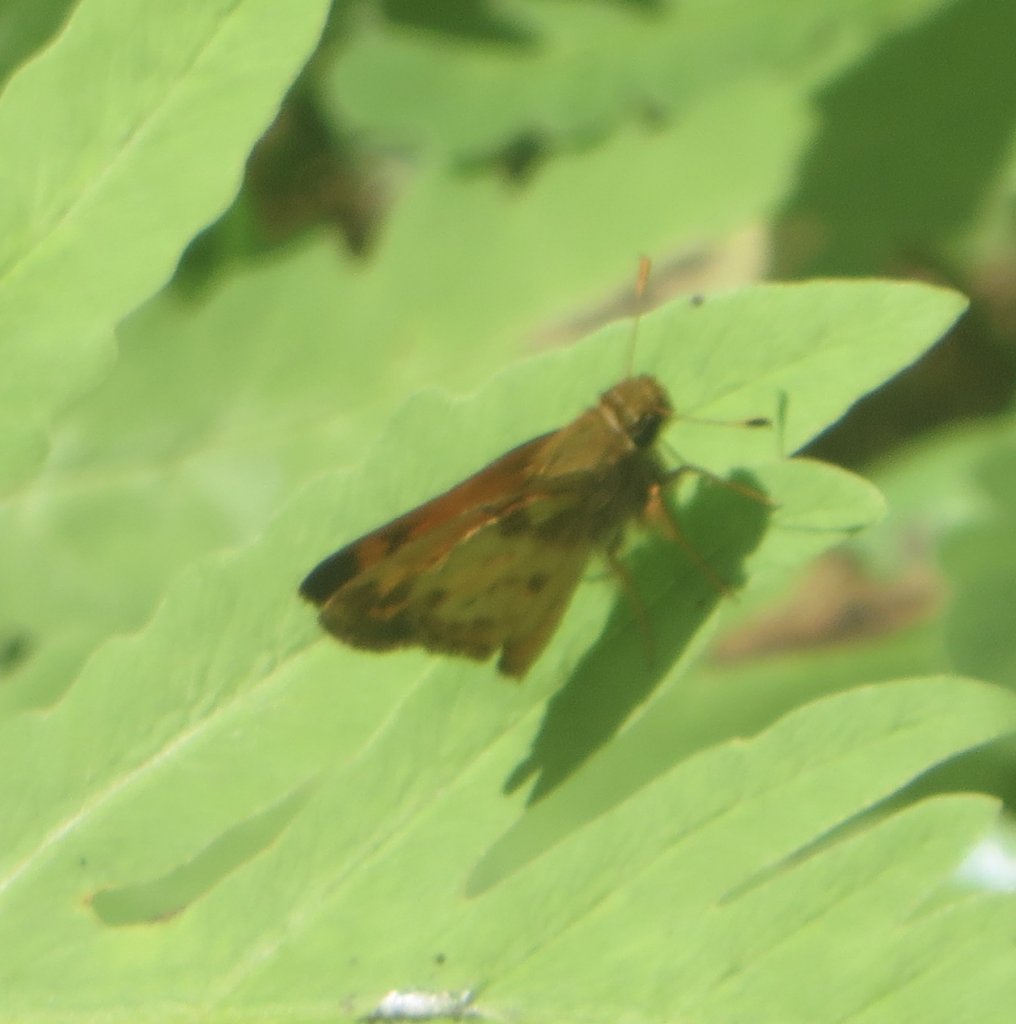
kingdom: Animalia
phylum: Arthropoda
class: Insecta
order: Lepidoptera
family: Hesperiidae
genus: Lon
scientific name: Lon zabulon
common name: Zabulon Skipper
